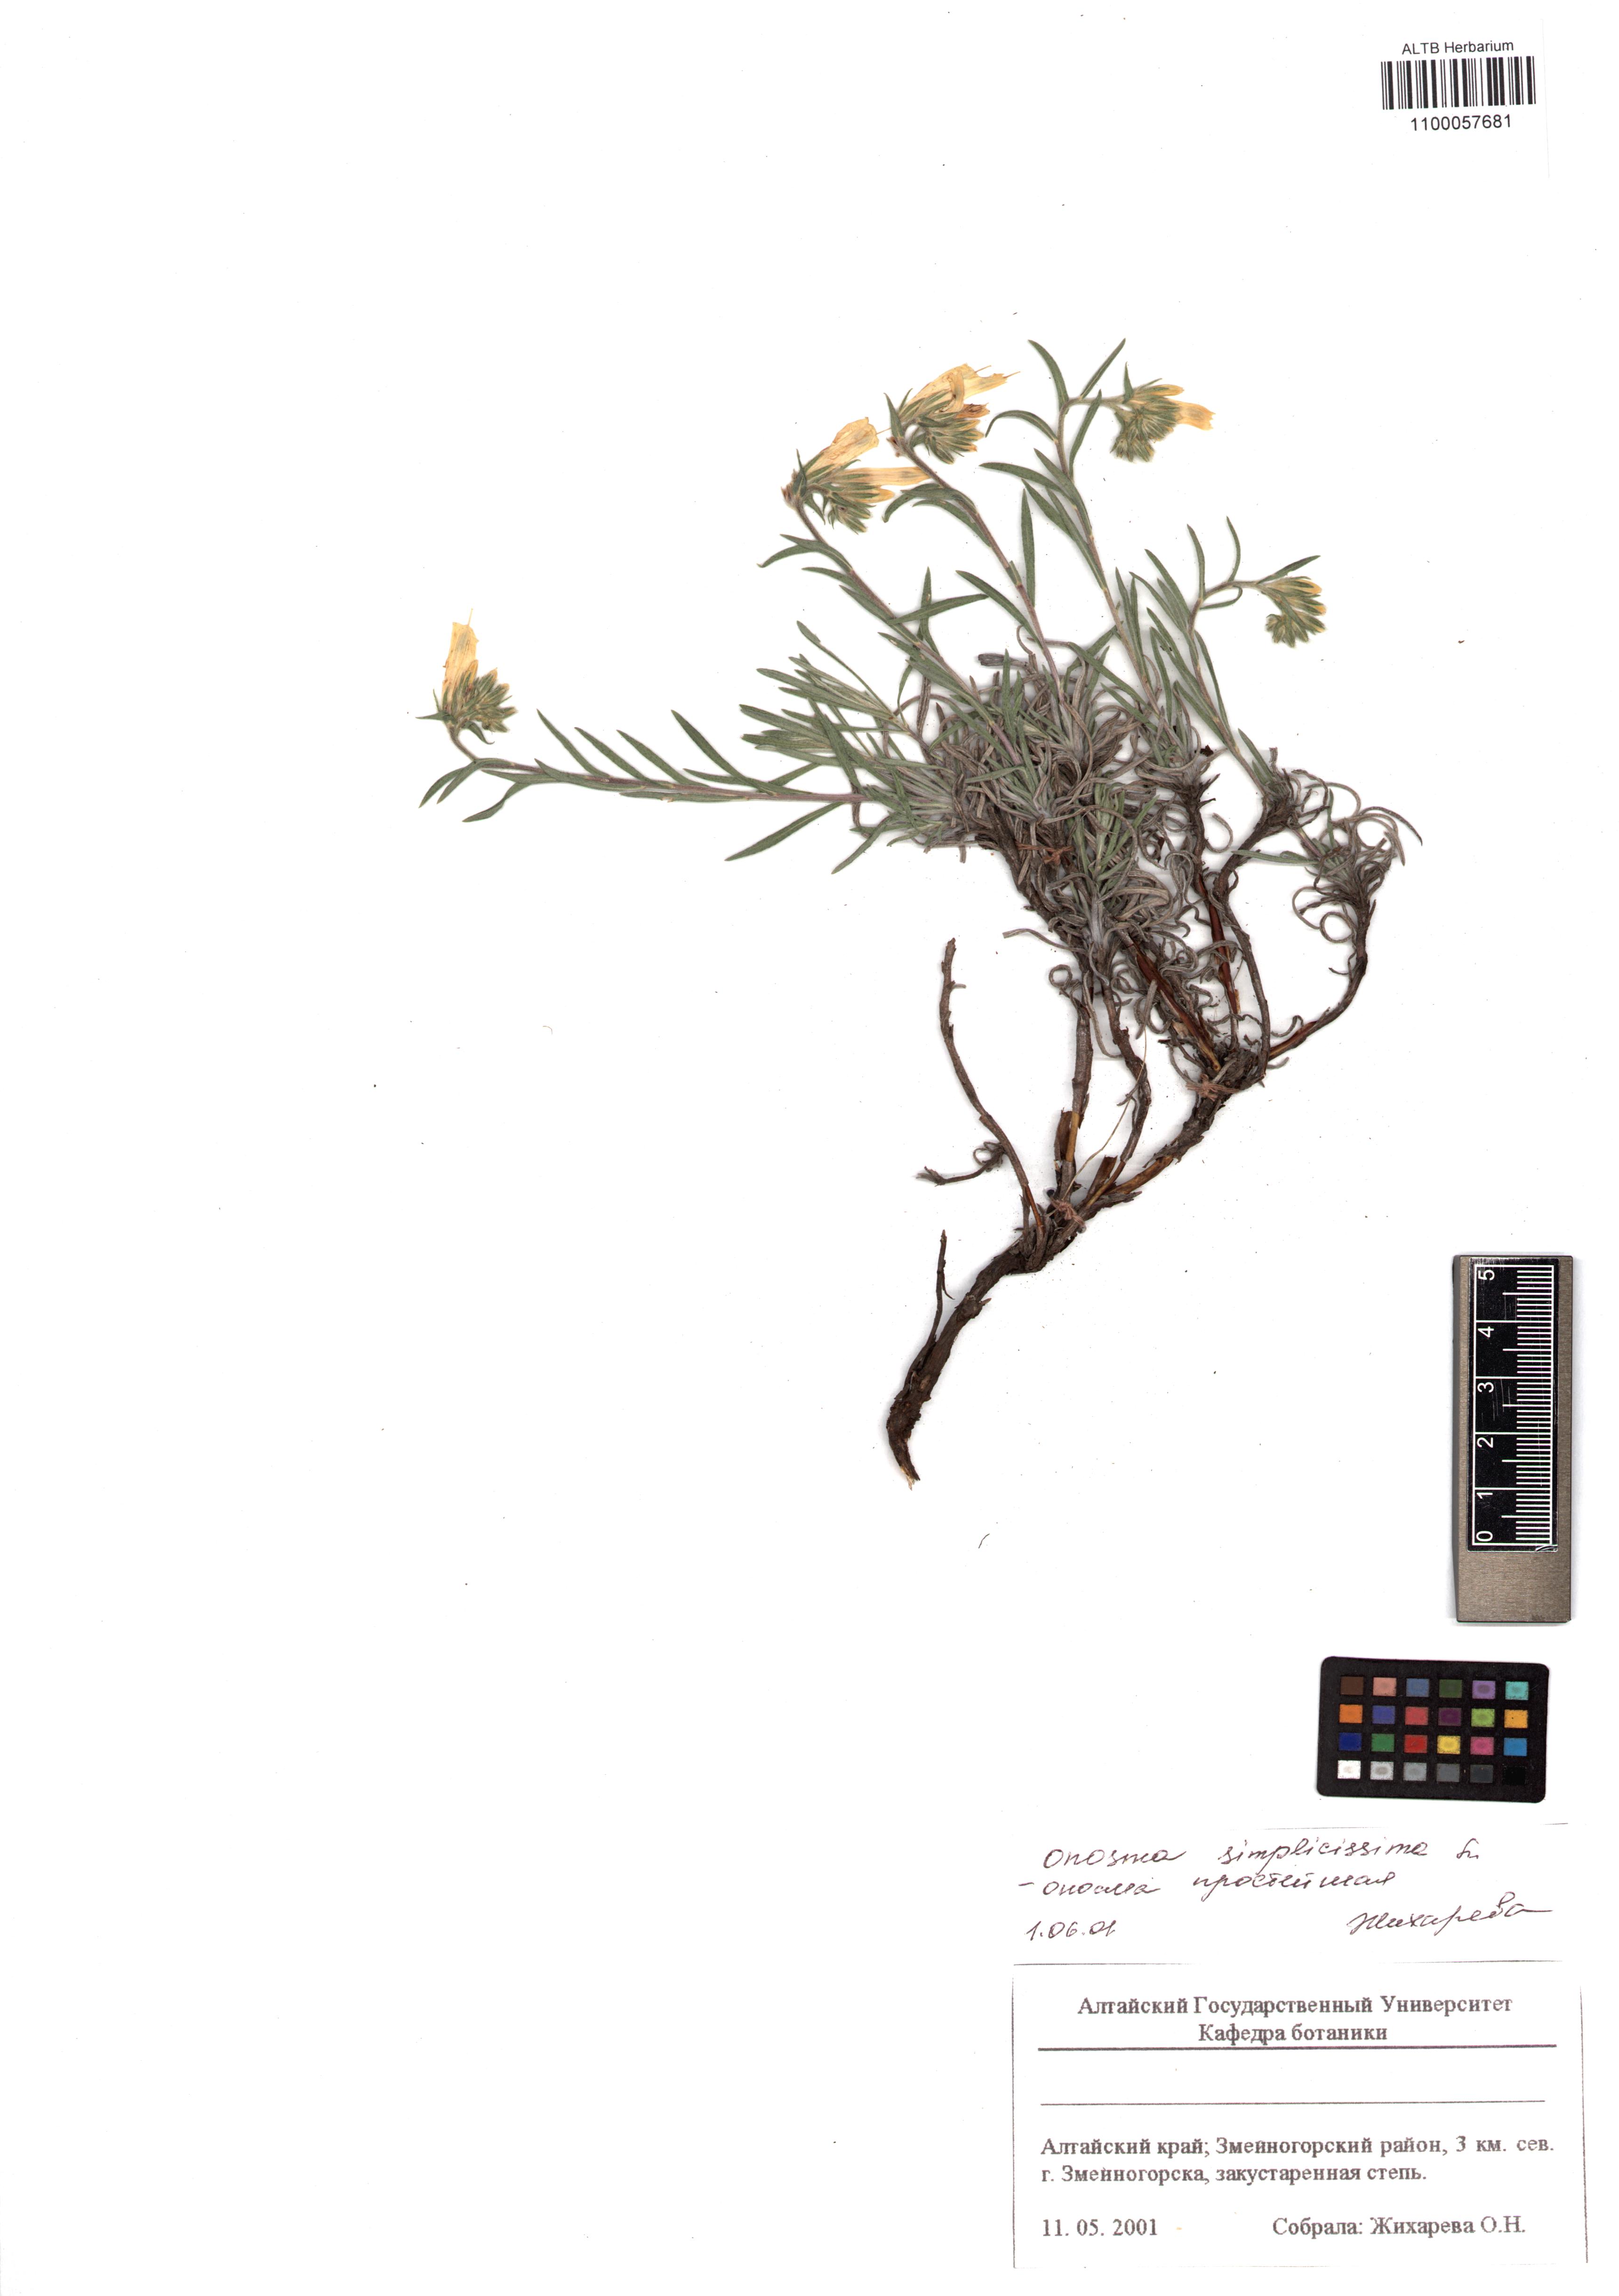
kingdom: Plantae
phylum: Tracheophyta
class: Magnoliopsida
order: Boraginales
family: Boraginaceae
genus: Onosma
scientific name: Onosma simplicissima
